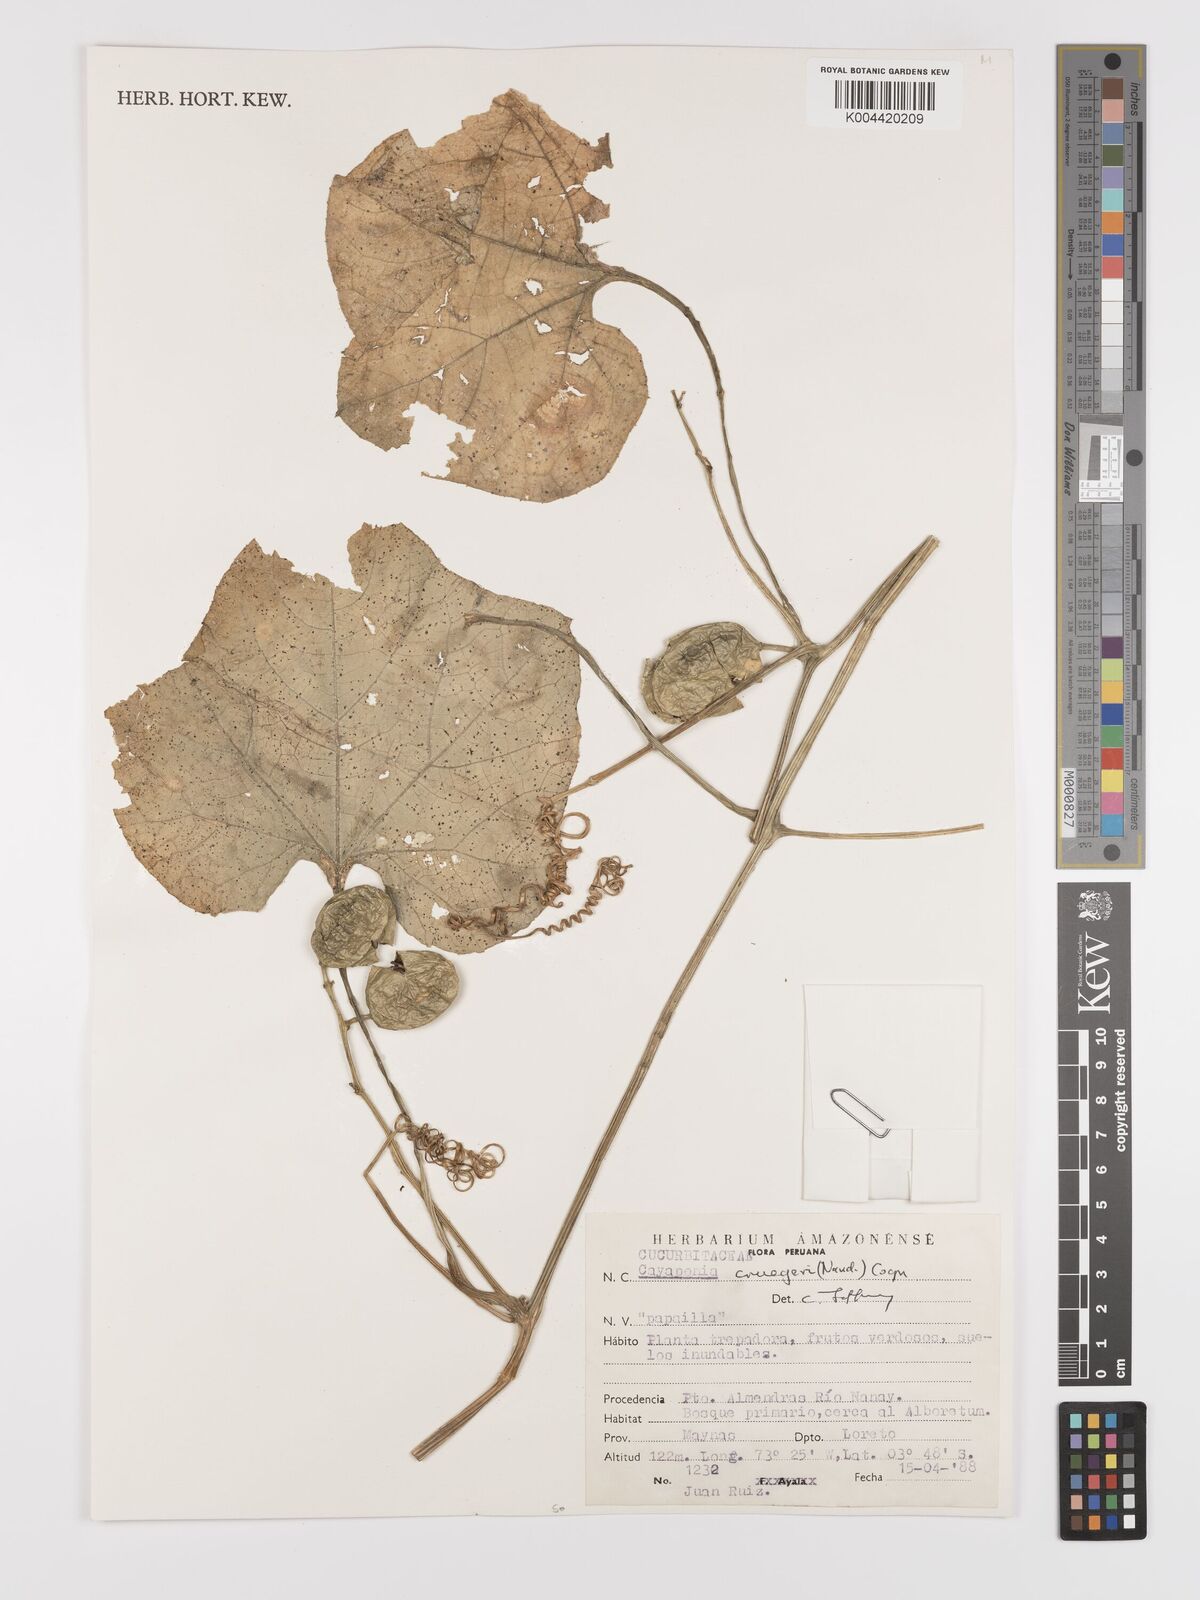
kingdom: Plantae
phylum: Tracheophyta
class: Magnoliopsida
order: Cucurbitales
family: Cucurbitaceae
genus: Cayaponia
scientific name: Cayaponia cruegeri
